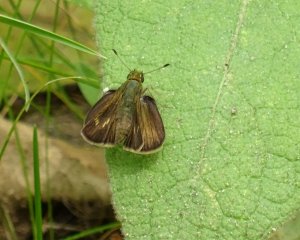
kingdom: Animalia
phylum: Arthropoda
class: Insecta
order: Lepidoptera
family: Hesperiidae
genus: Polites
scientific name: Polites egeremet
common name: Northern Broken-Dash
